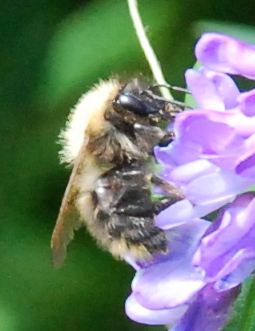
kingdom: Animalia
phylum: Arthropoda
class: Insecta
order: Hymenoptera
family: Apidae
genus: Bombus
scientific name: Bombus pascuorum
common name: Common carder bee
